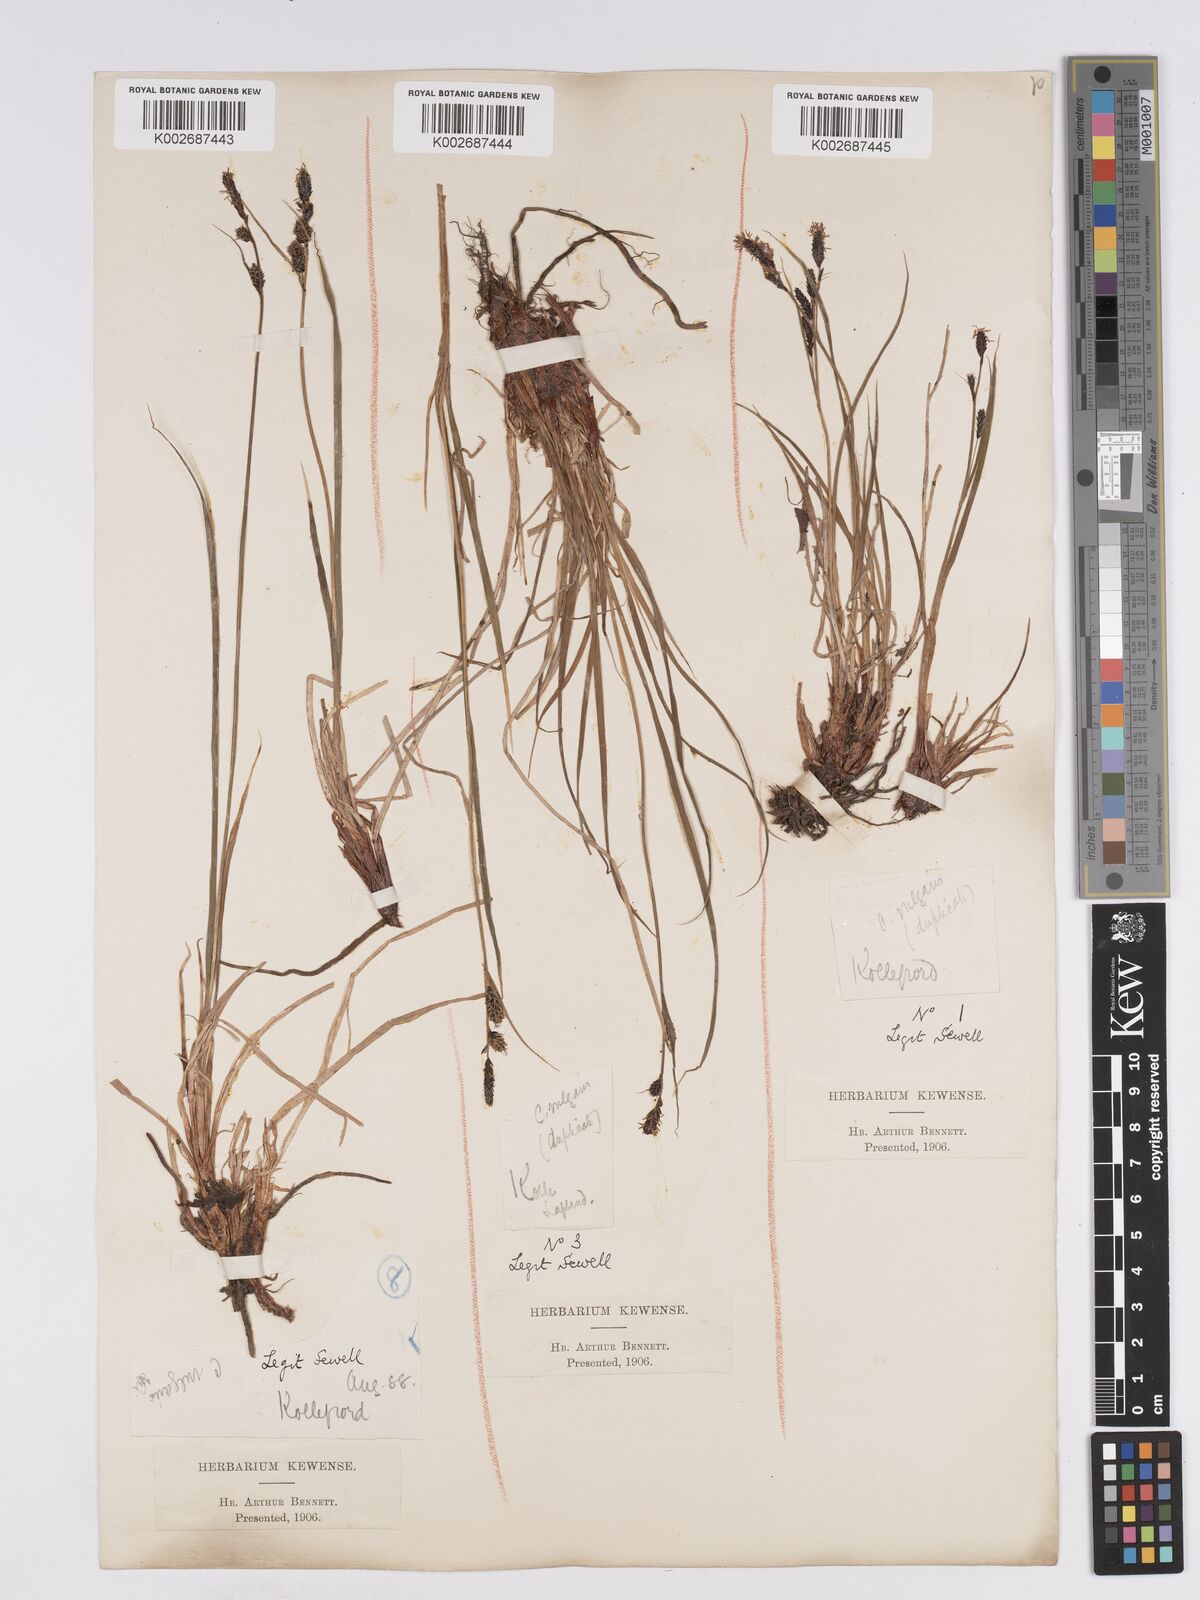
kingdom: Plantae
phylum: Tracheophyta
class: Liliopsida
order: Poales
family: Cyperaceae
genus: Carex
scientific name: Carex nigra
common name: Common sedge
